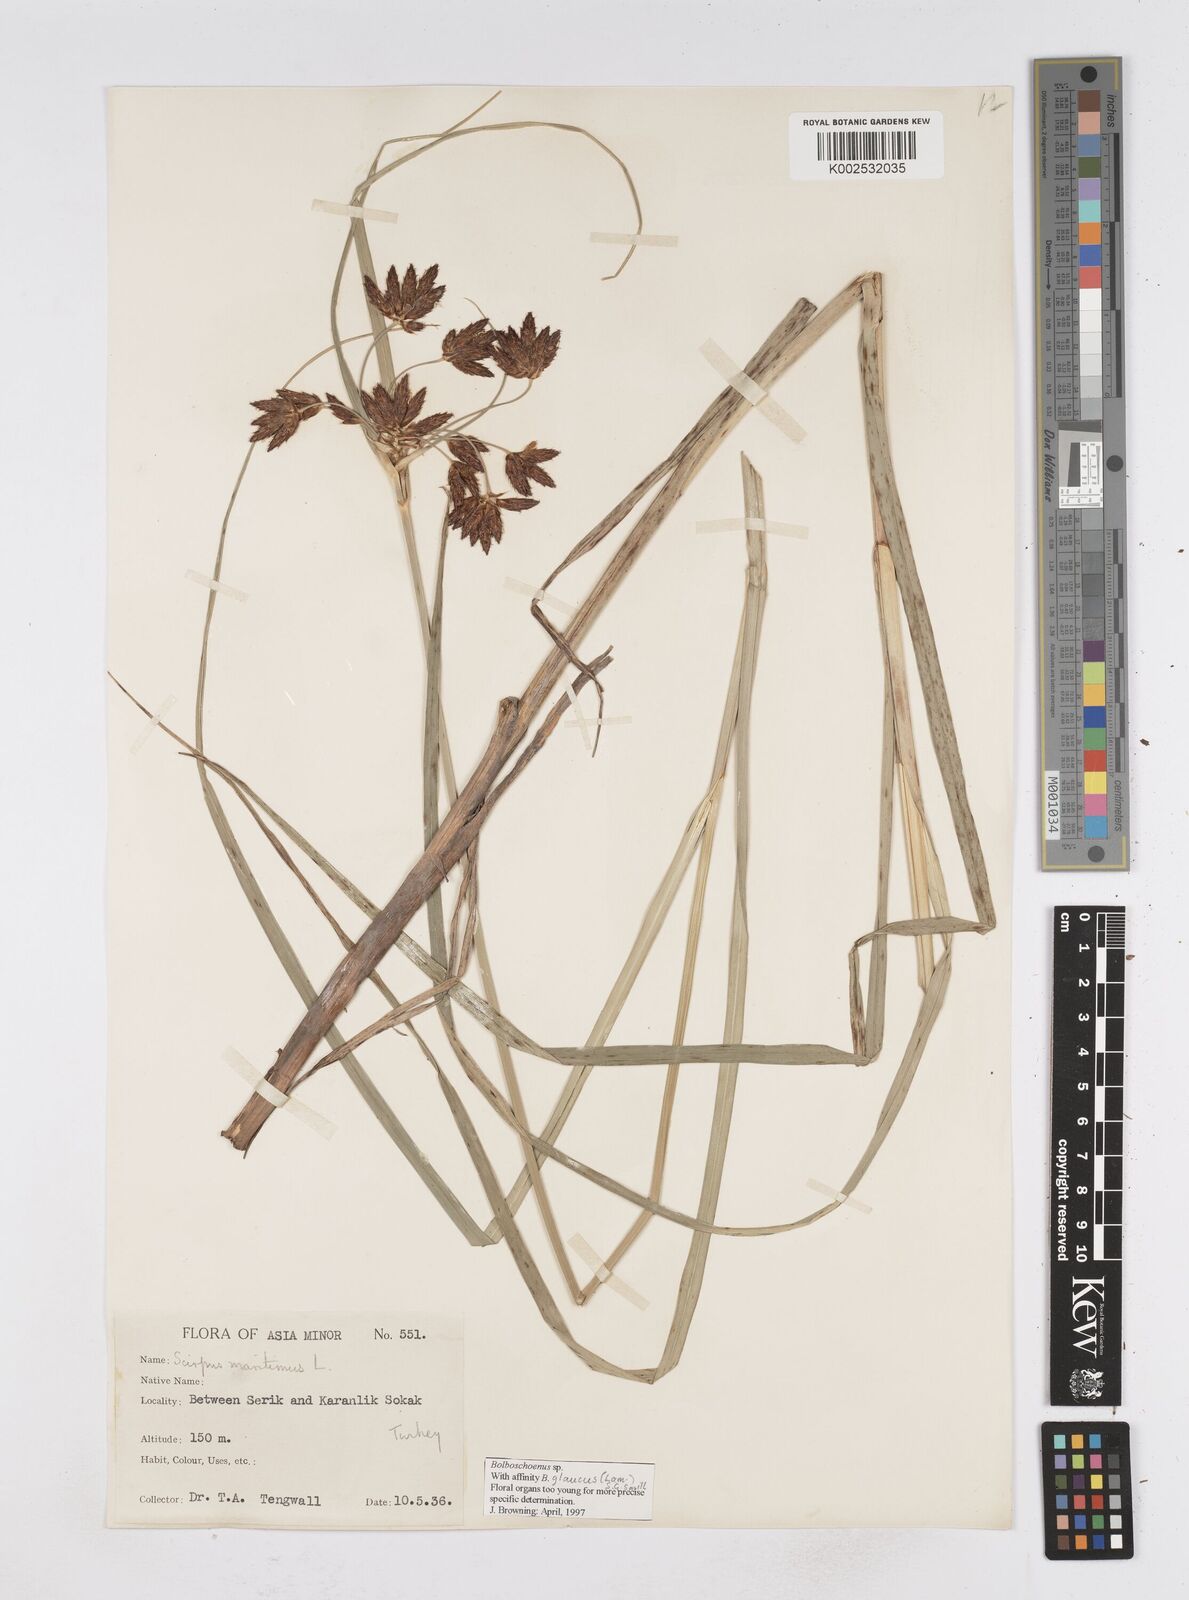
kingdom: Plantae
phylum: Tracheophyta
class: Liliopsida
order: Poales
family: Cyperaceae
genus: Bolboschoenus
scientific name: Bolboschoenus maritimus
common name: Sea club-rush
